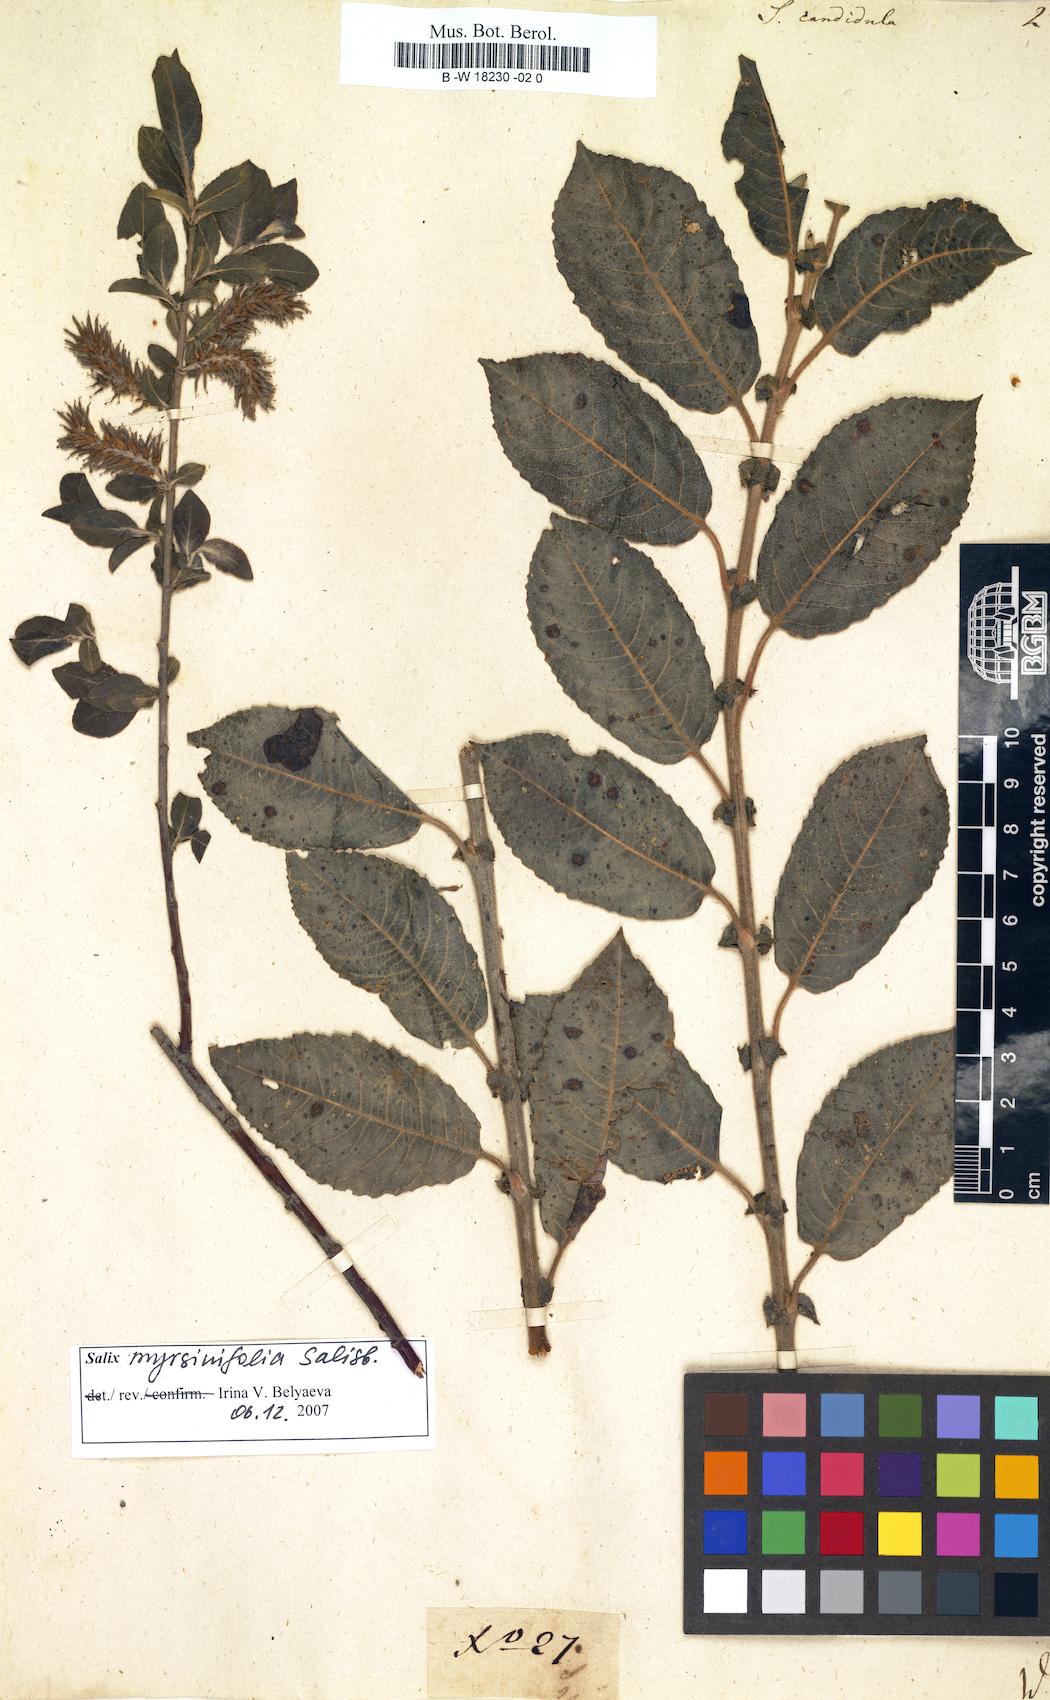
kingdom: Plantae
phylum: Tracheophyta
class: Magnoliopsida
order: Malpighiales
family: Salicaceae
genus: Salix
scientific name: Salix
